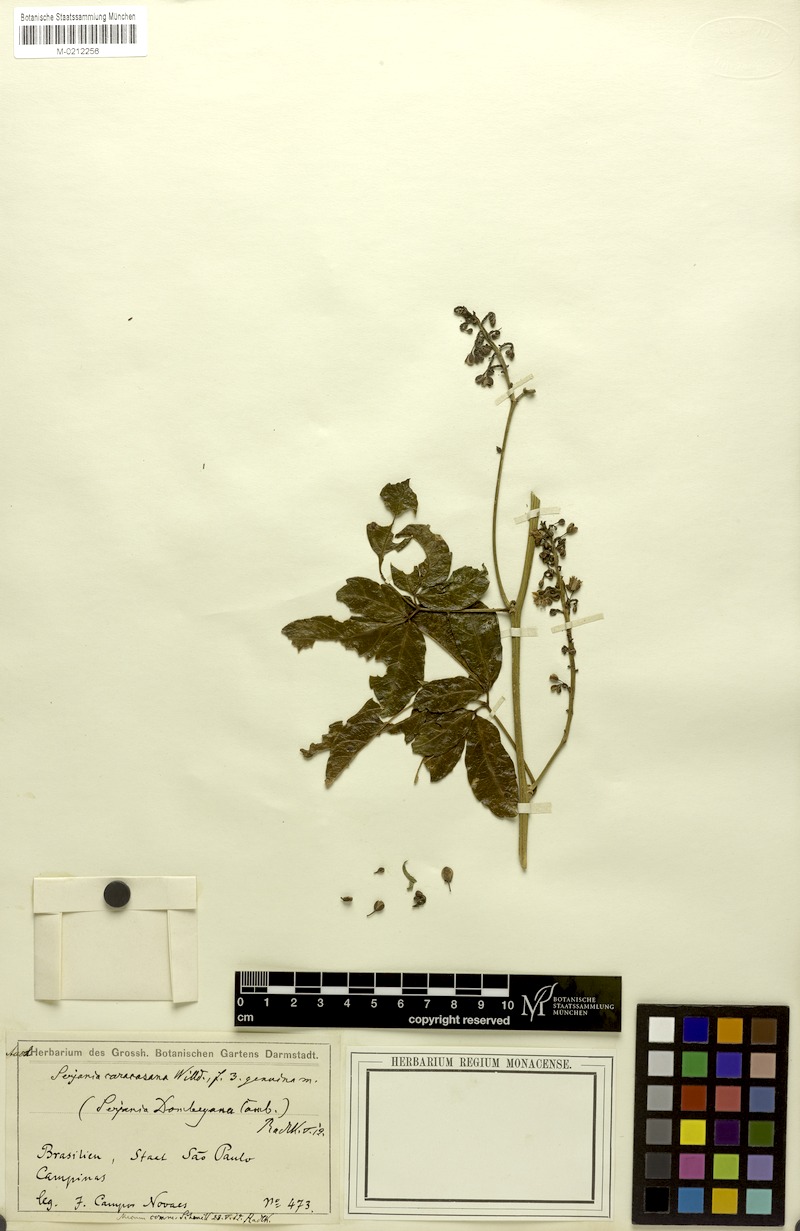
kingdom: Plantae
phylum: Tracheophyta
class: Magnoliopsida
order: Sapindales
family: Sapindaceae
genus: Serjania
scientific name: Serjania caracasana
